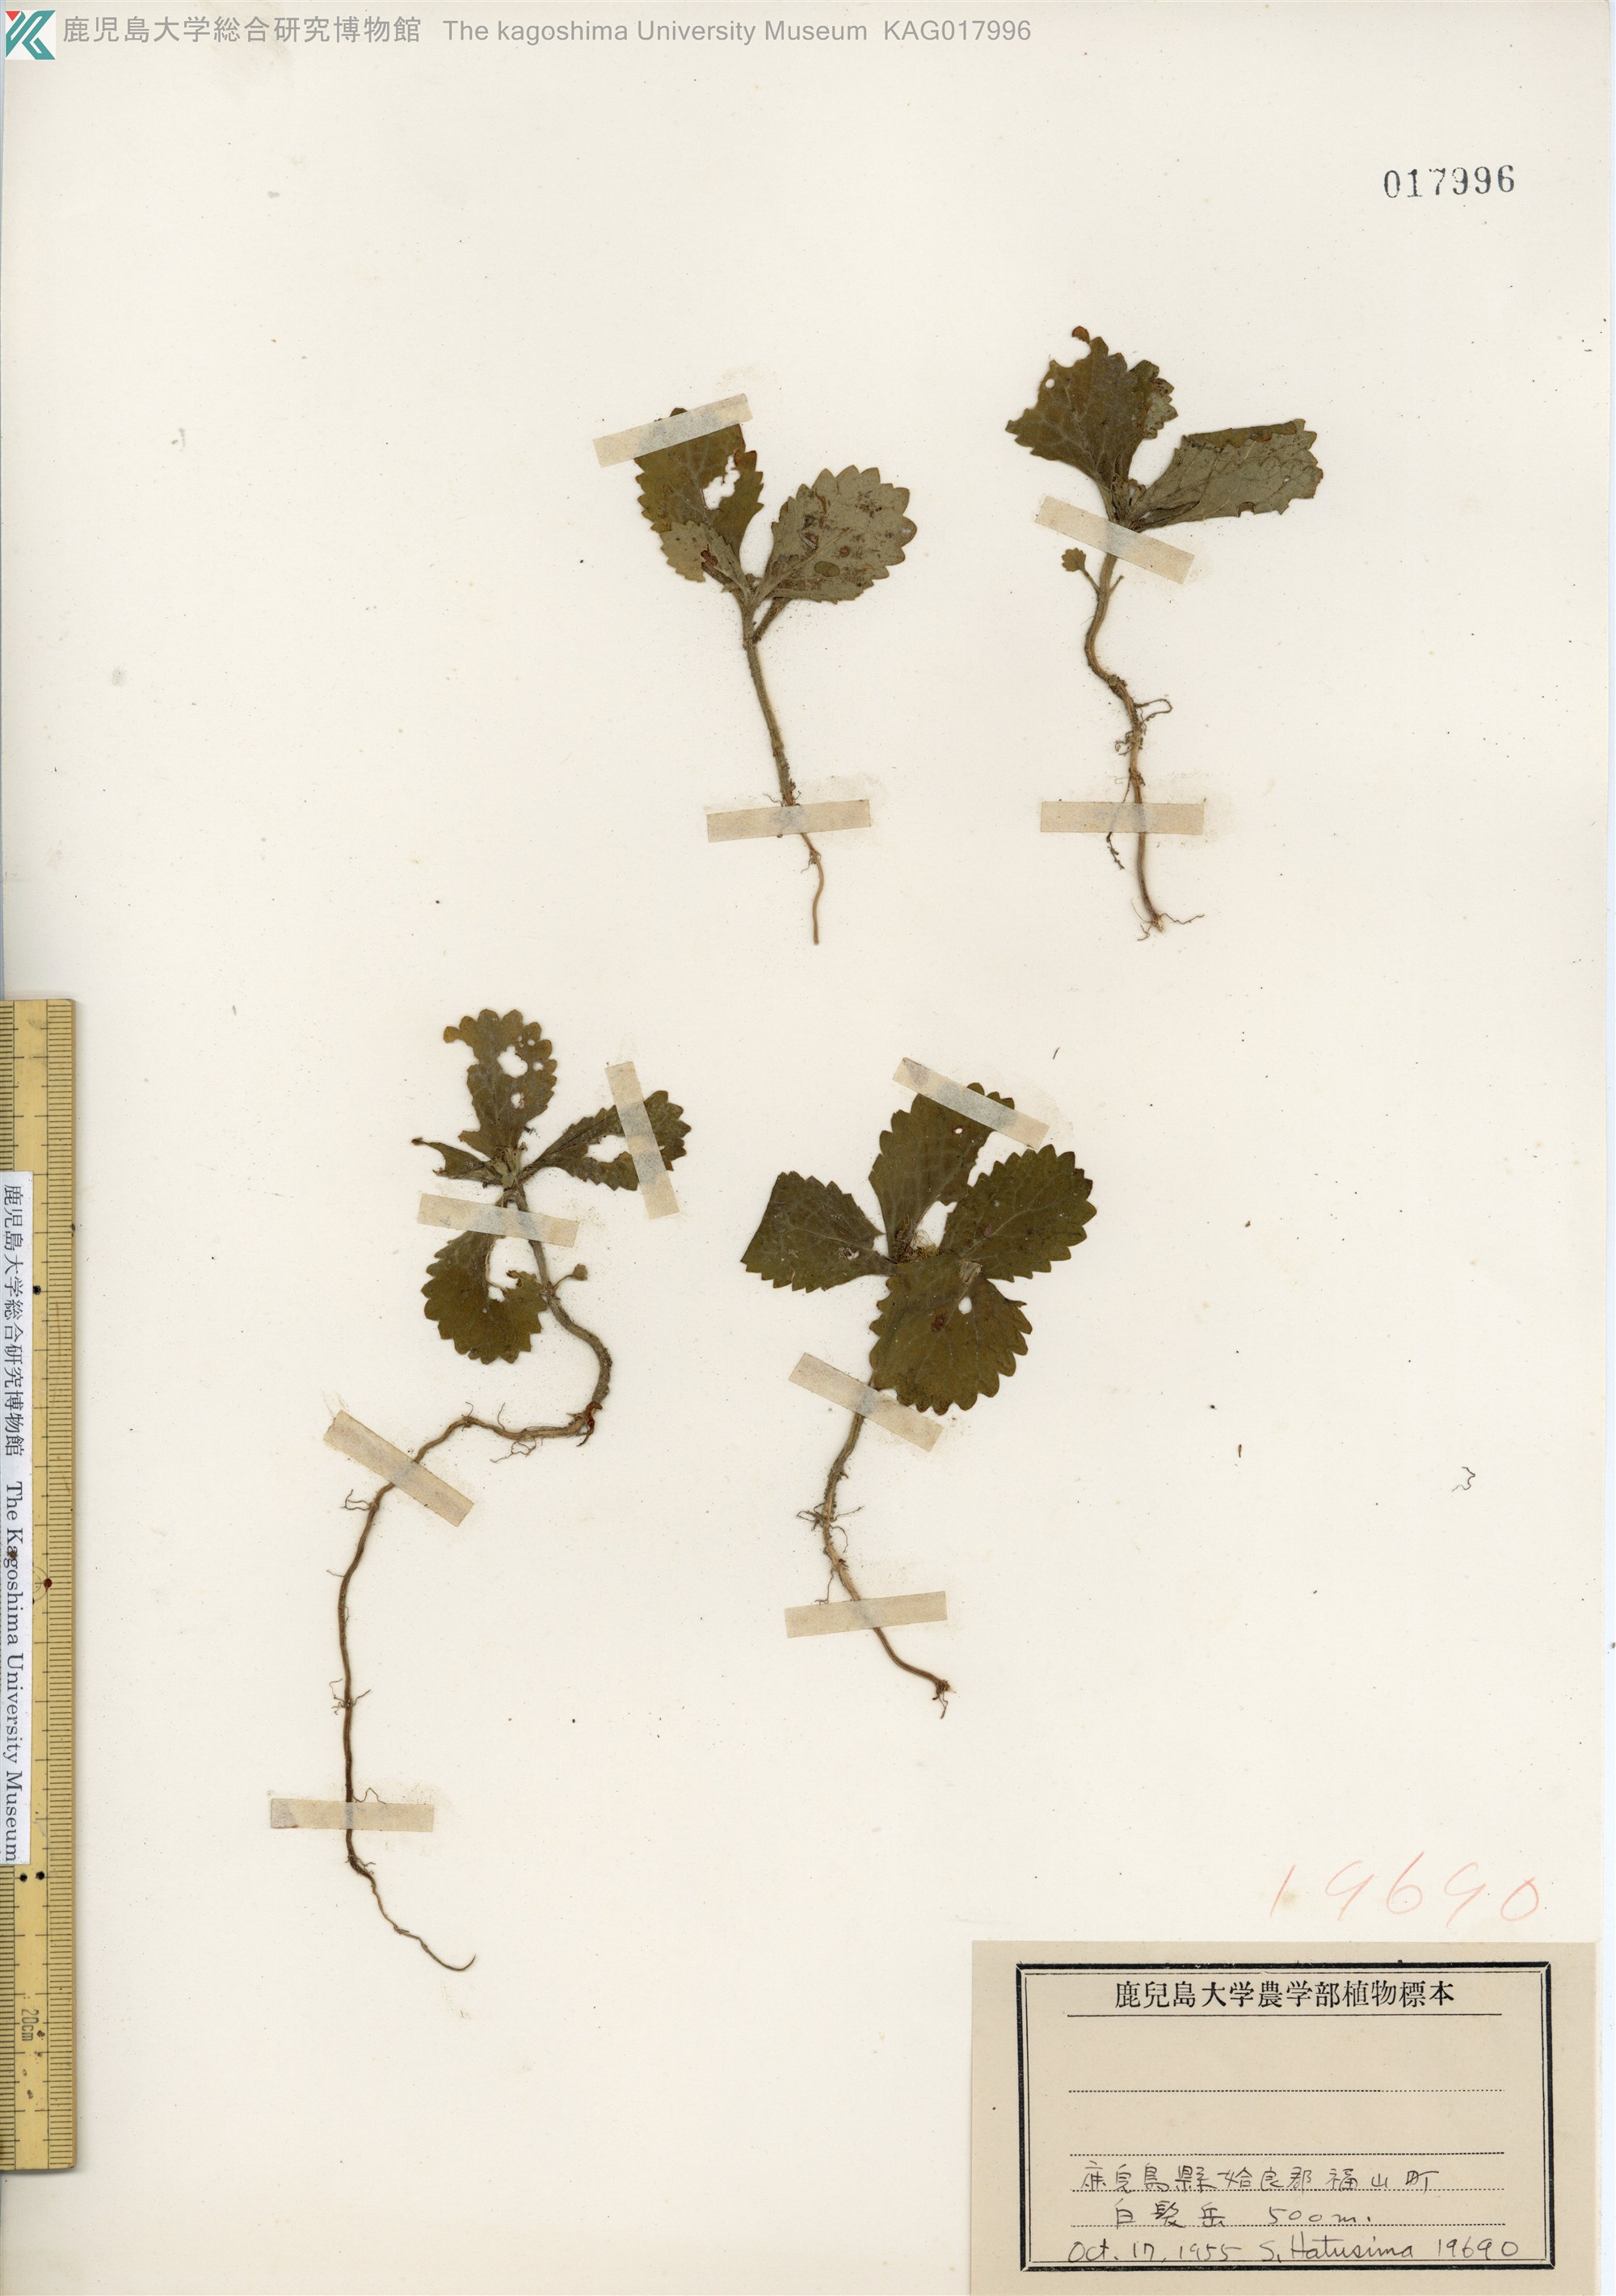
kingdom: Plantae
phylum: Tracheophyta
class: Magnoliopsida
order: Lamiales
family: Lamiaceae
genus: Ajugoides
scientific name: Ajugoides humilis
